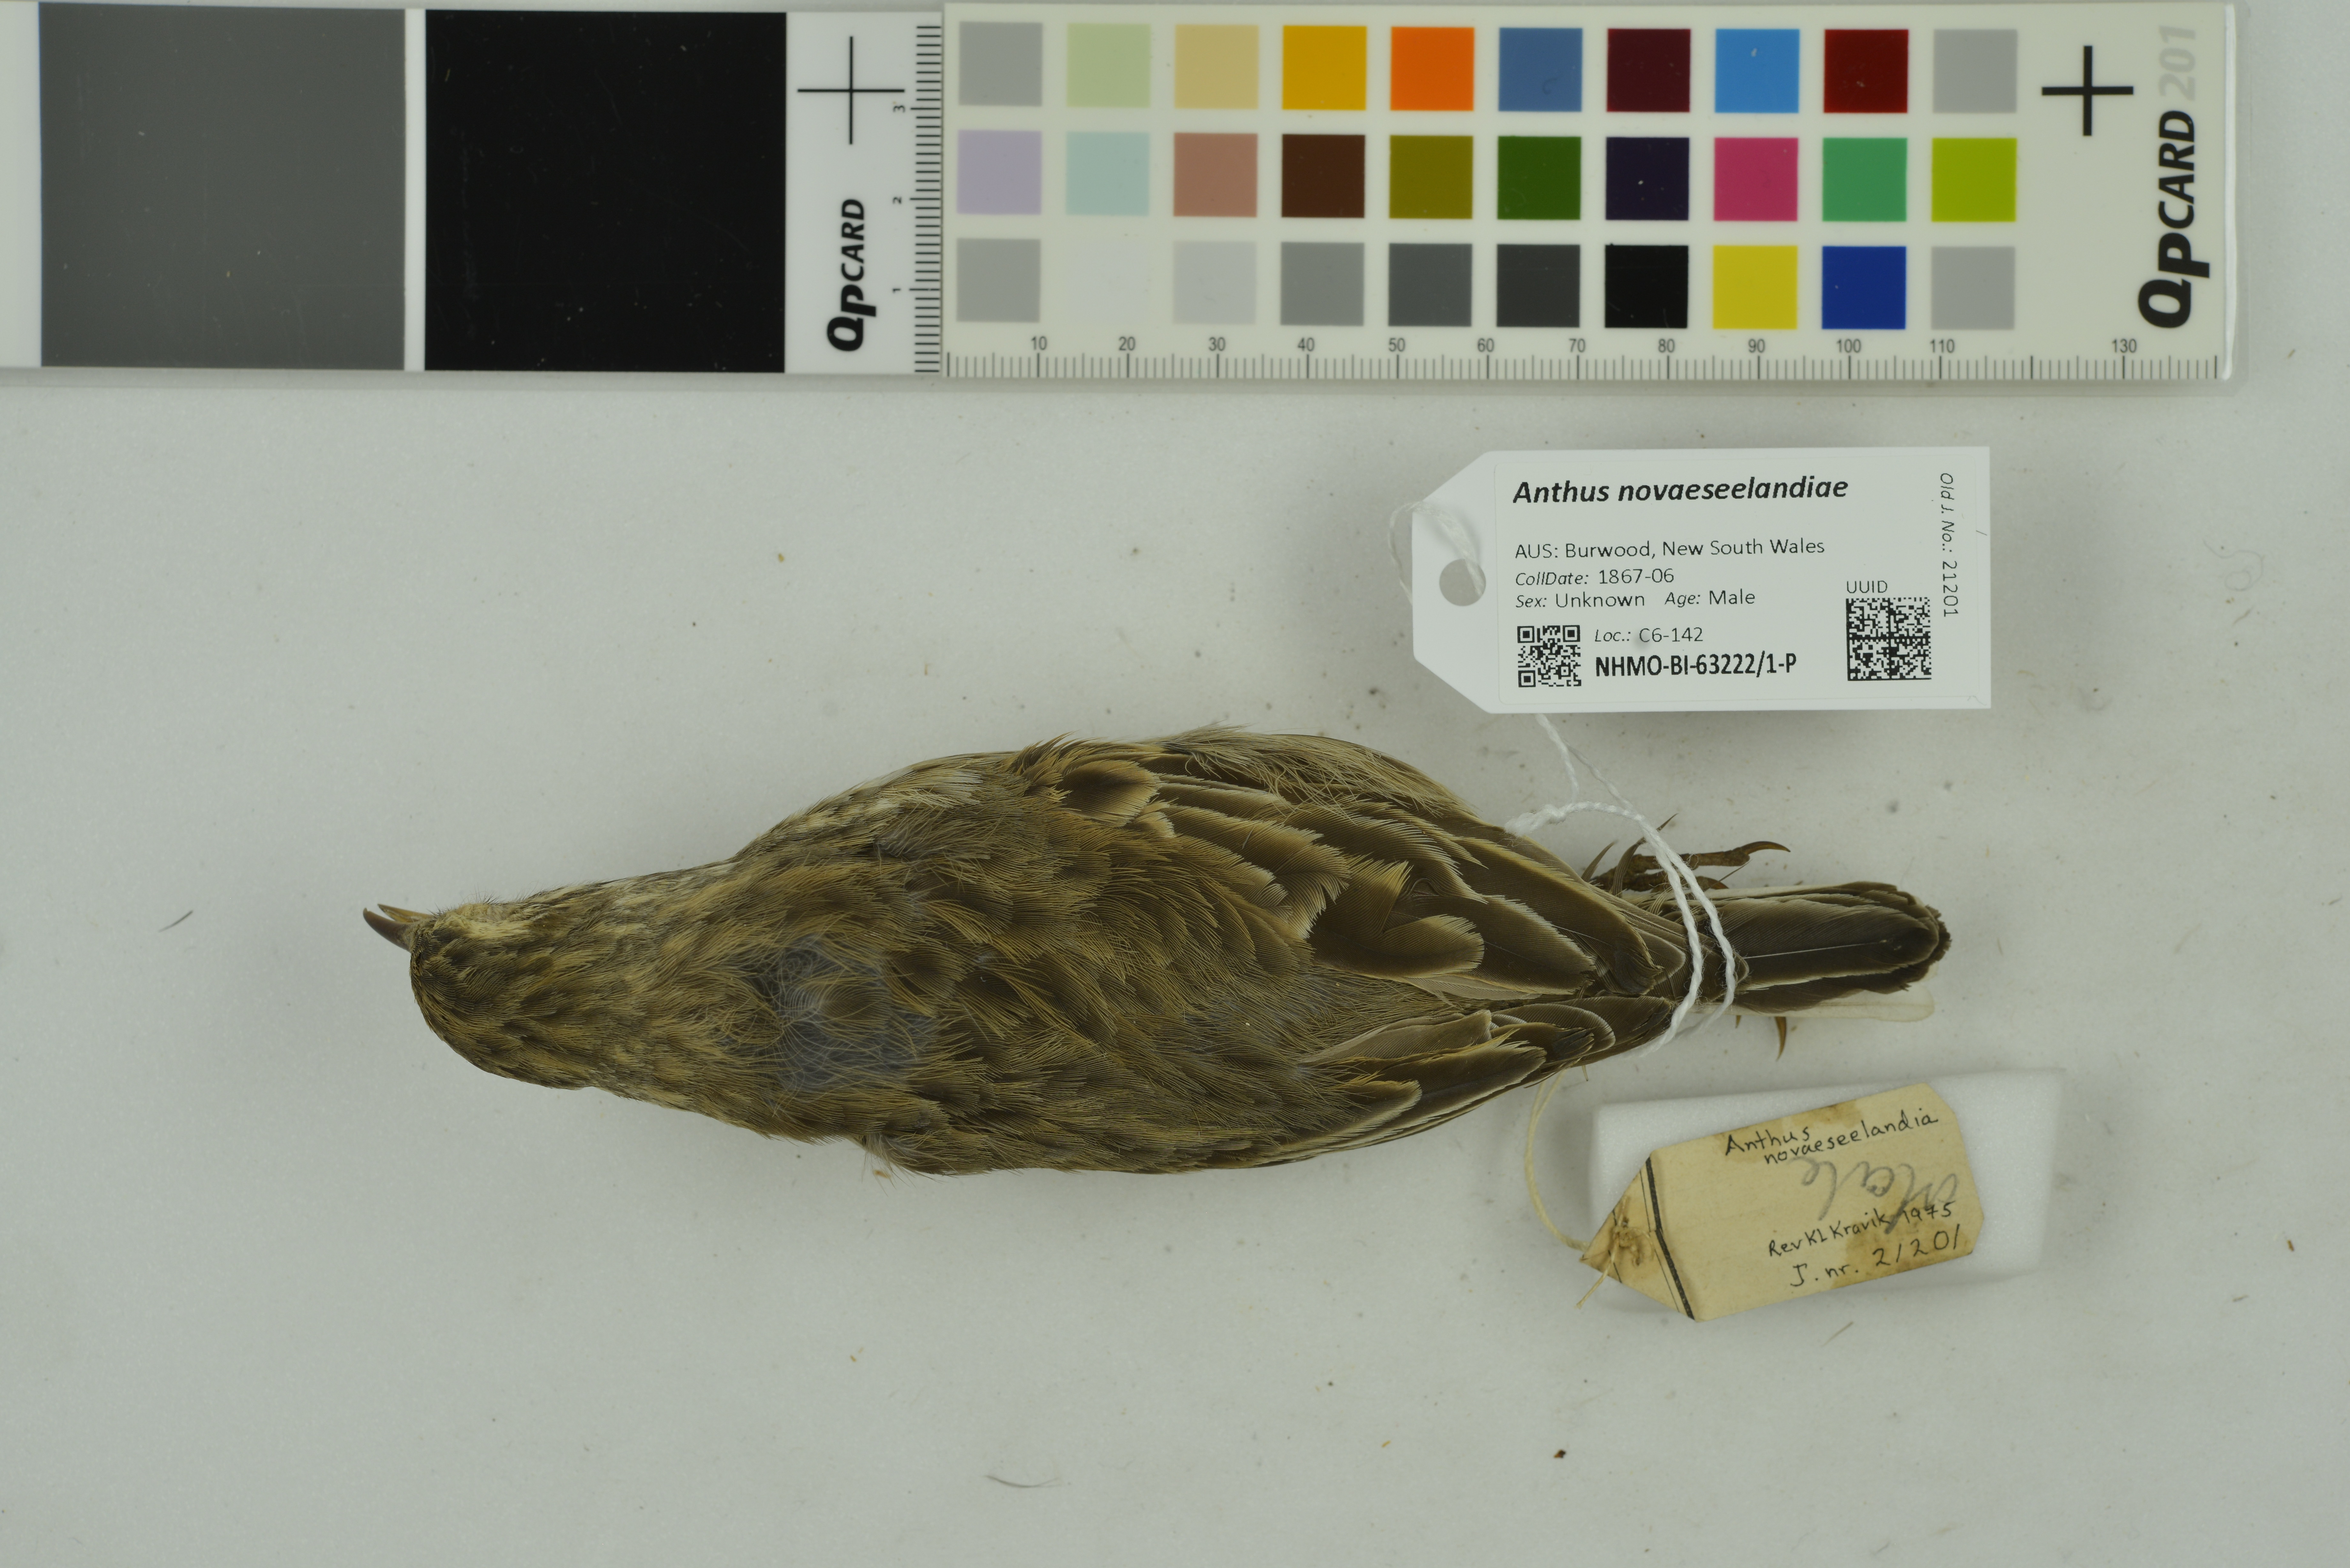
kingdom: Animalia
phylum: Chordata
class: Aves
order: Passeriformes
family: Motacillidae
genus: Anthus
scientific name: Anthus novaeseelandiae
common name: New zealand pipit
